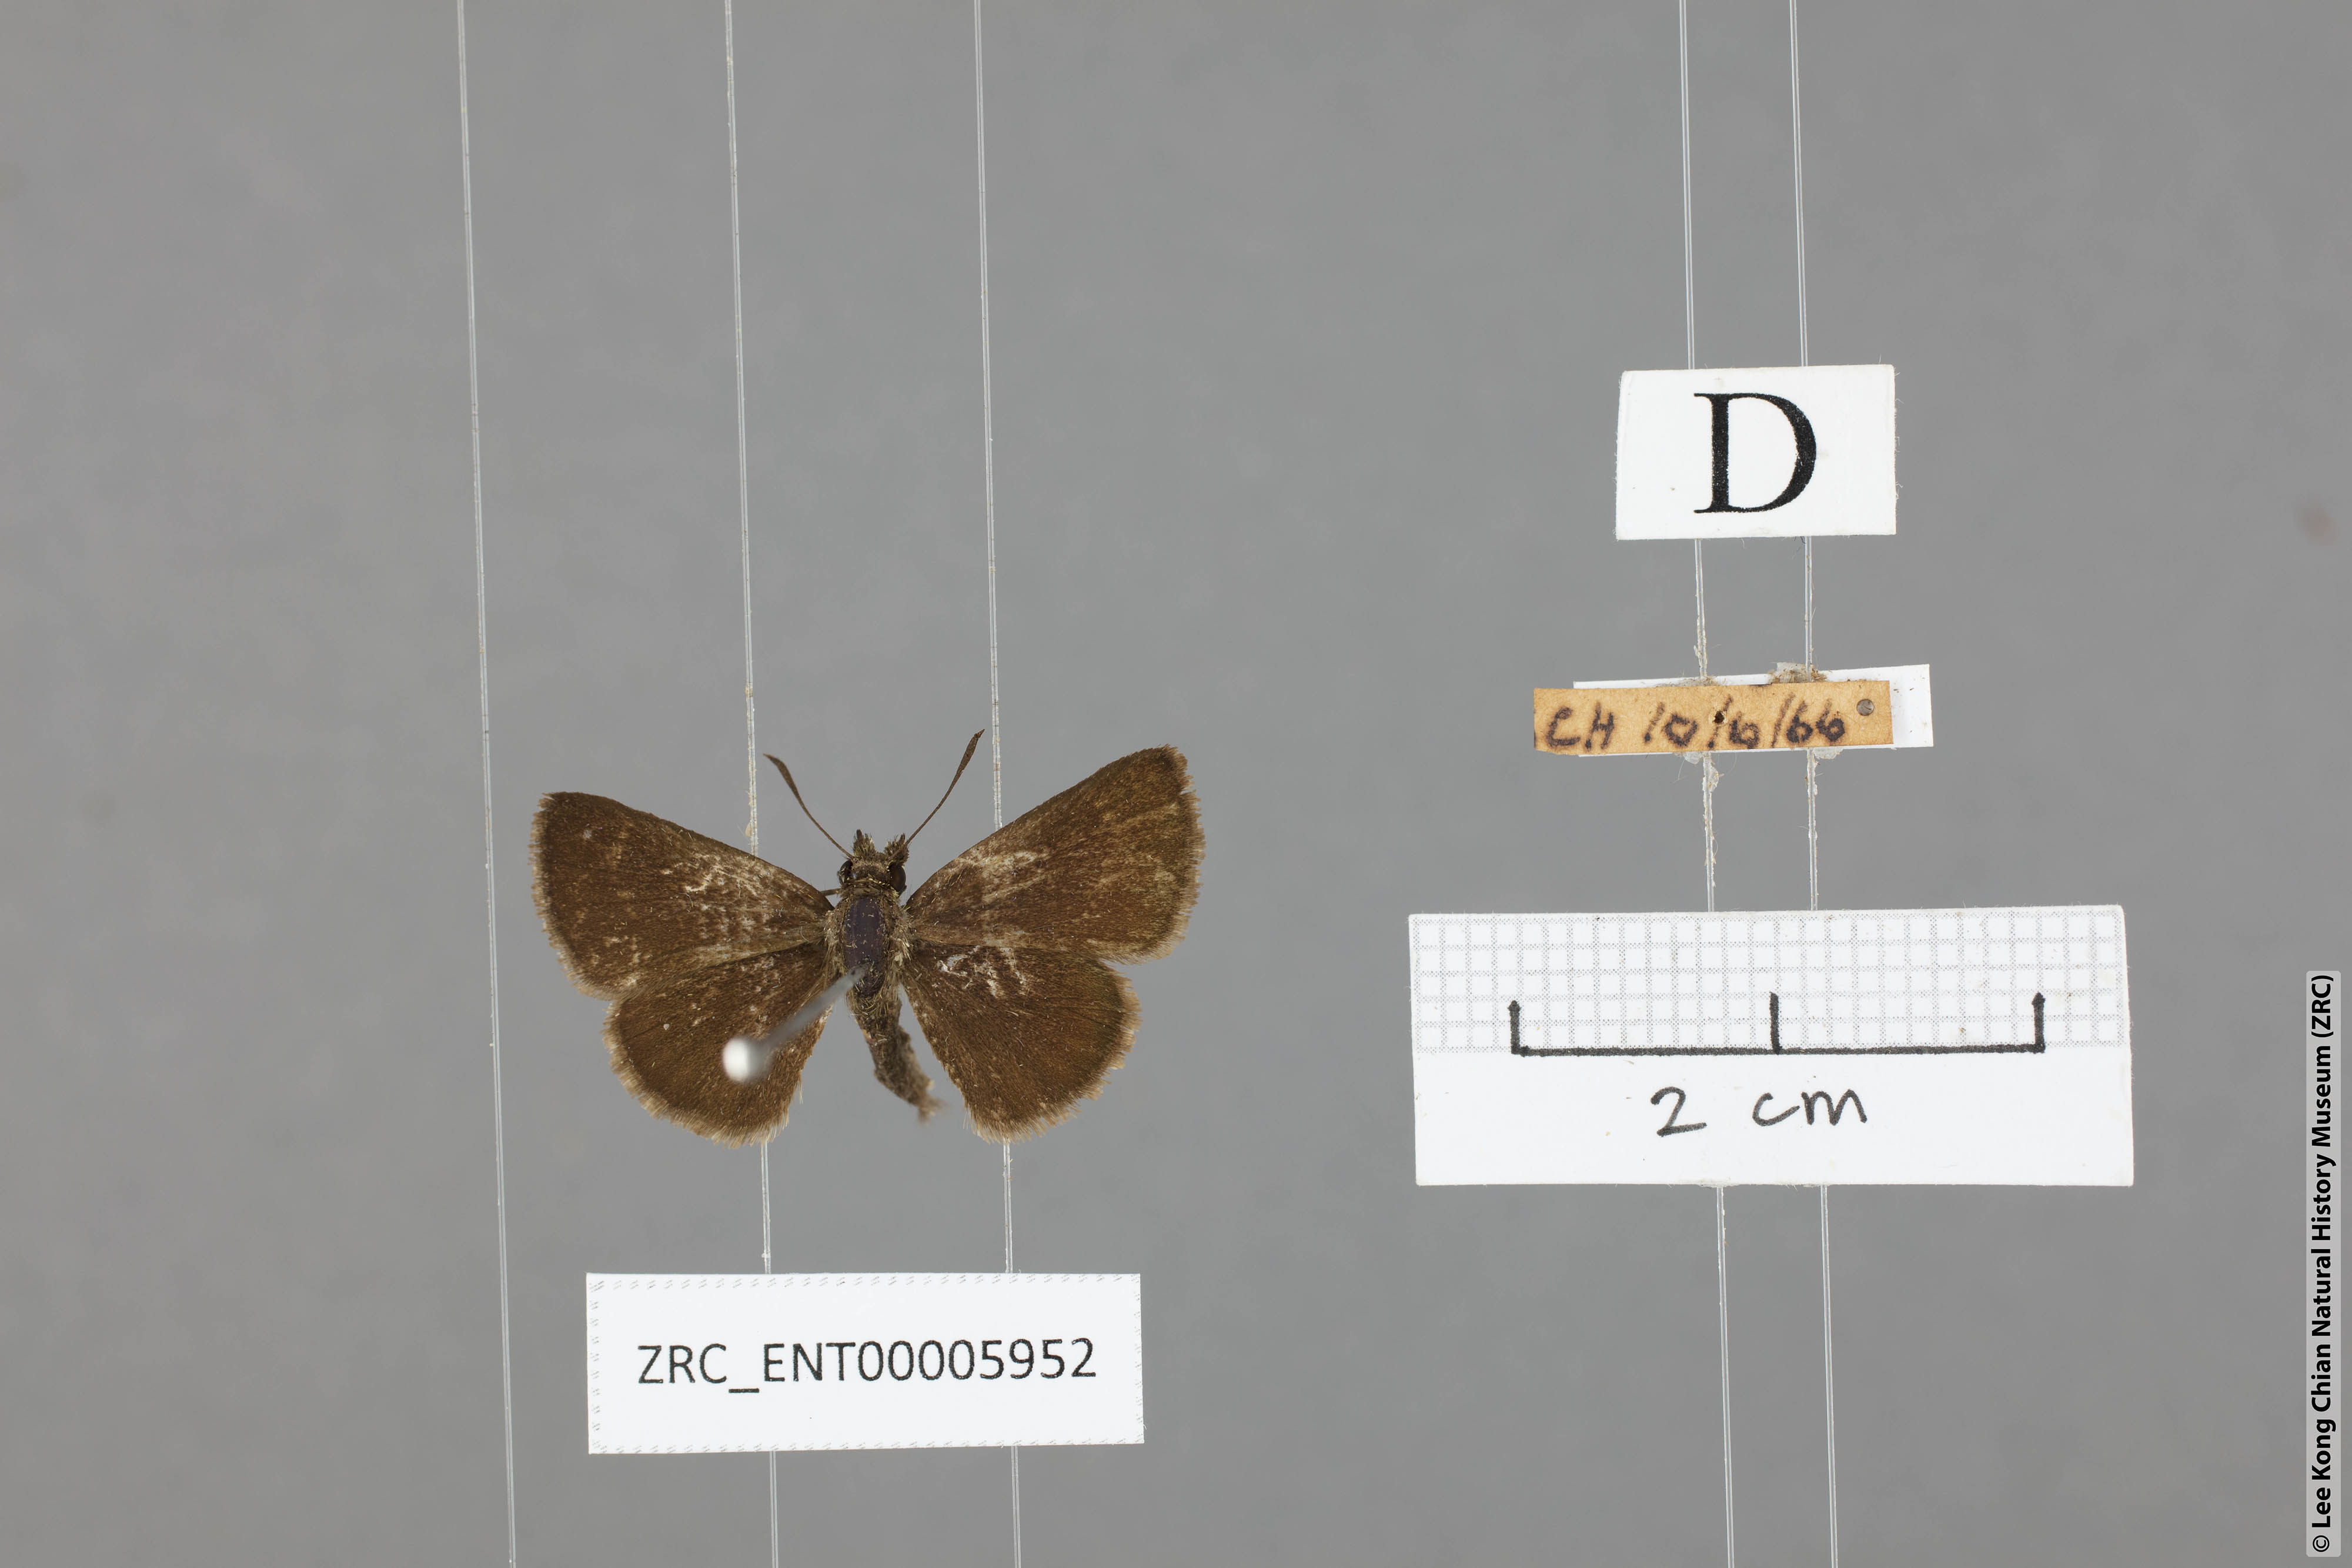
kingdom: Animalia
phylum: Arthropoda
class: Insecta
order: Lepidoptera
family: Hesperiidae
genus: Aeromachus
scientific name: Aeromachus jhora
